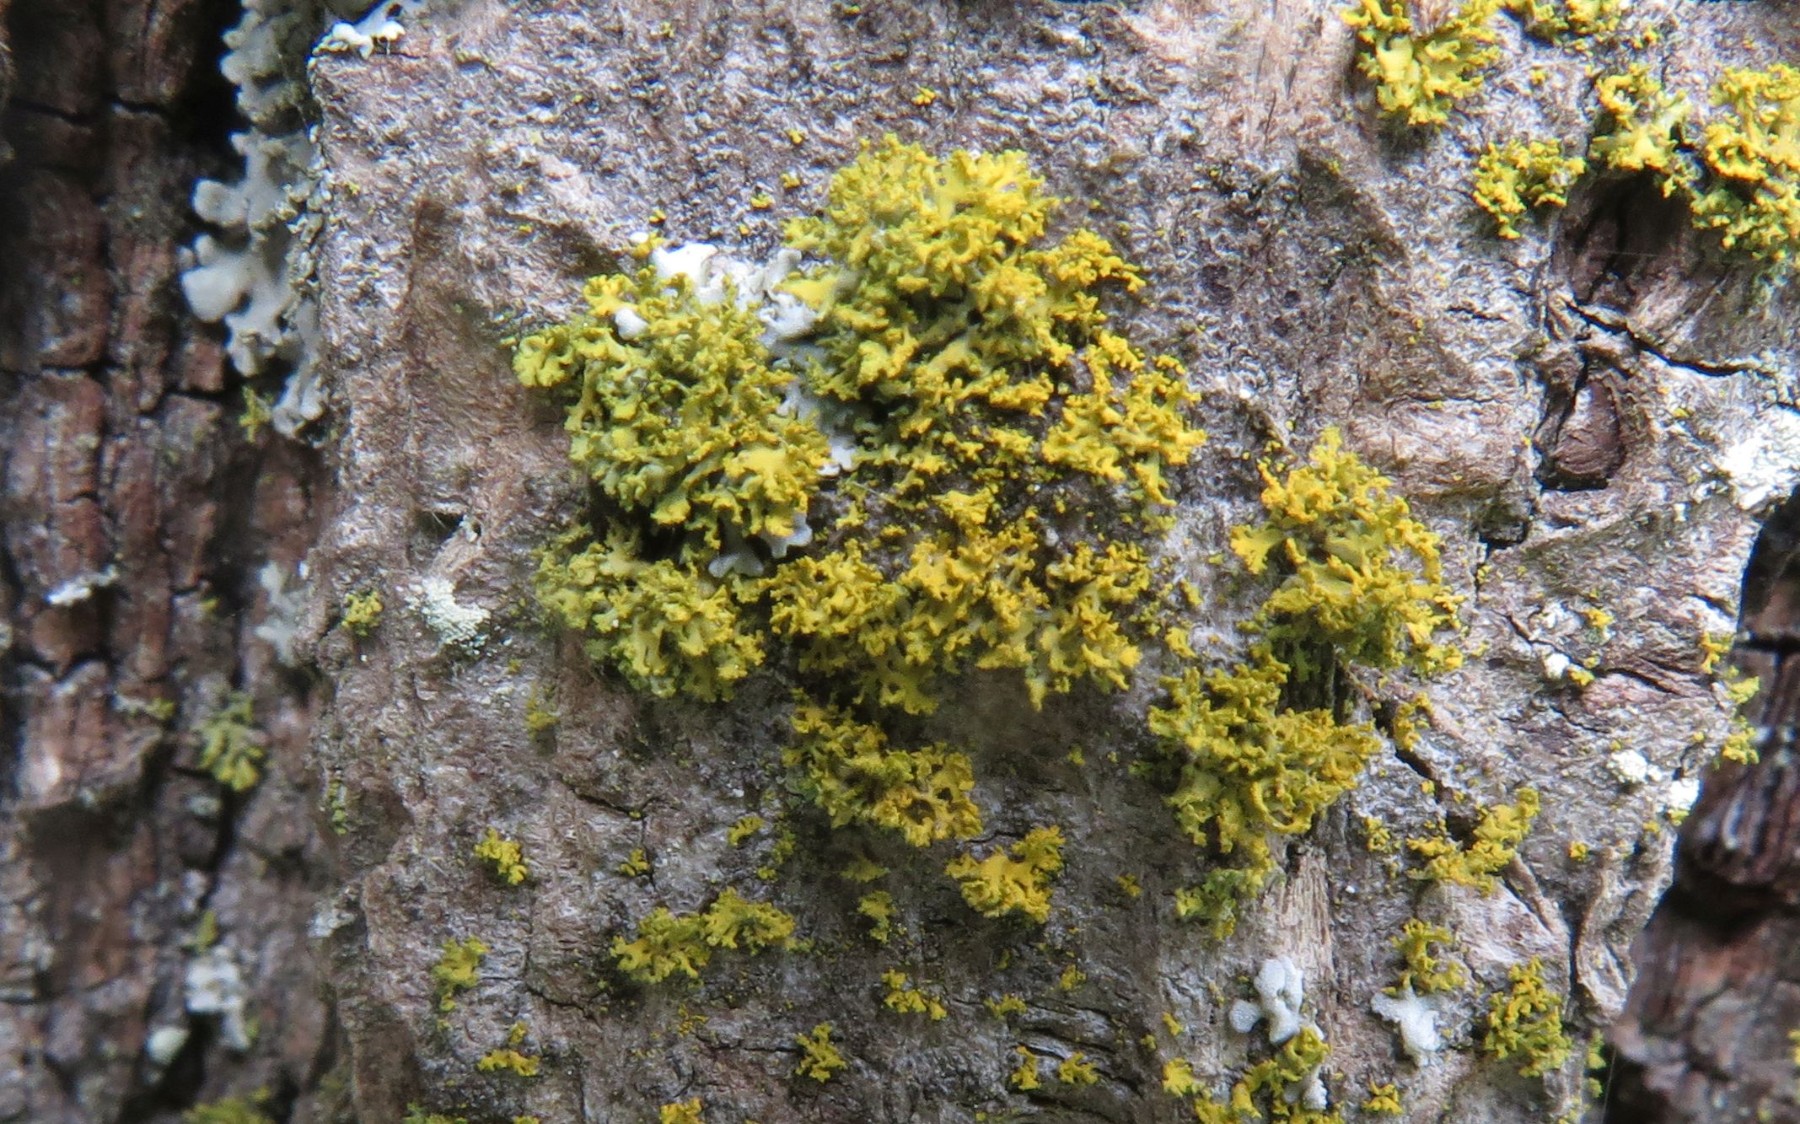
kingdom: Fungi
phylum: Ascomycota
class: Candelariomycetes
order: Candelariales
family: Candelariaceae
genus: Candelaria
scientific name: Candelaria concolor
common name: fliget smørlav
